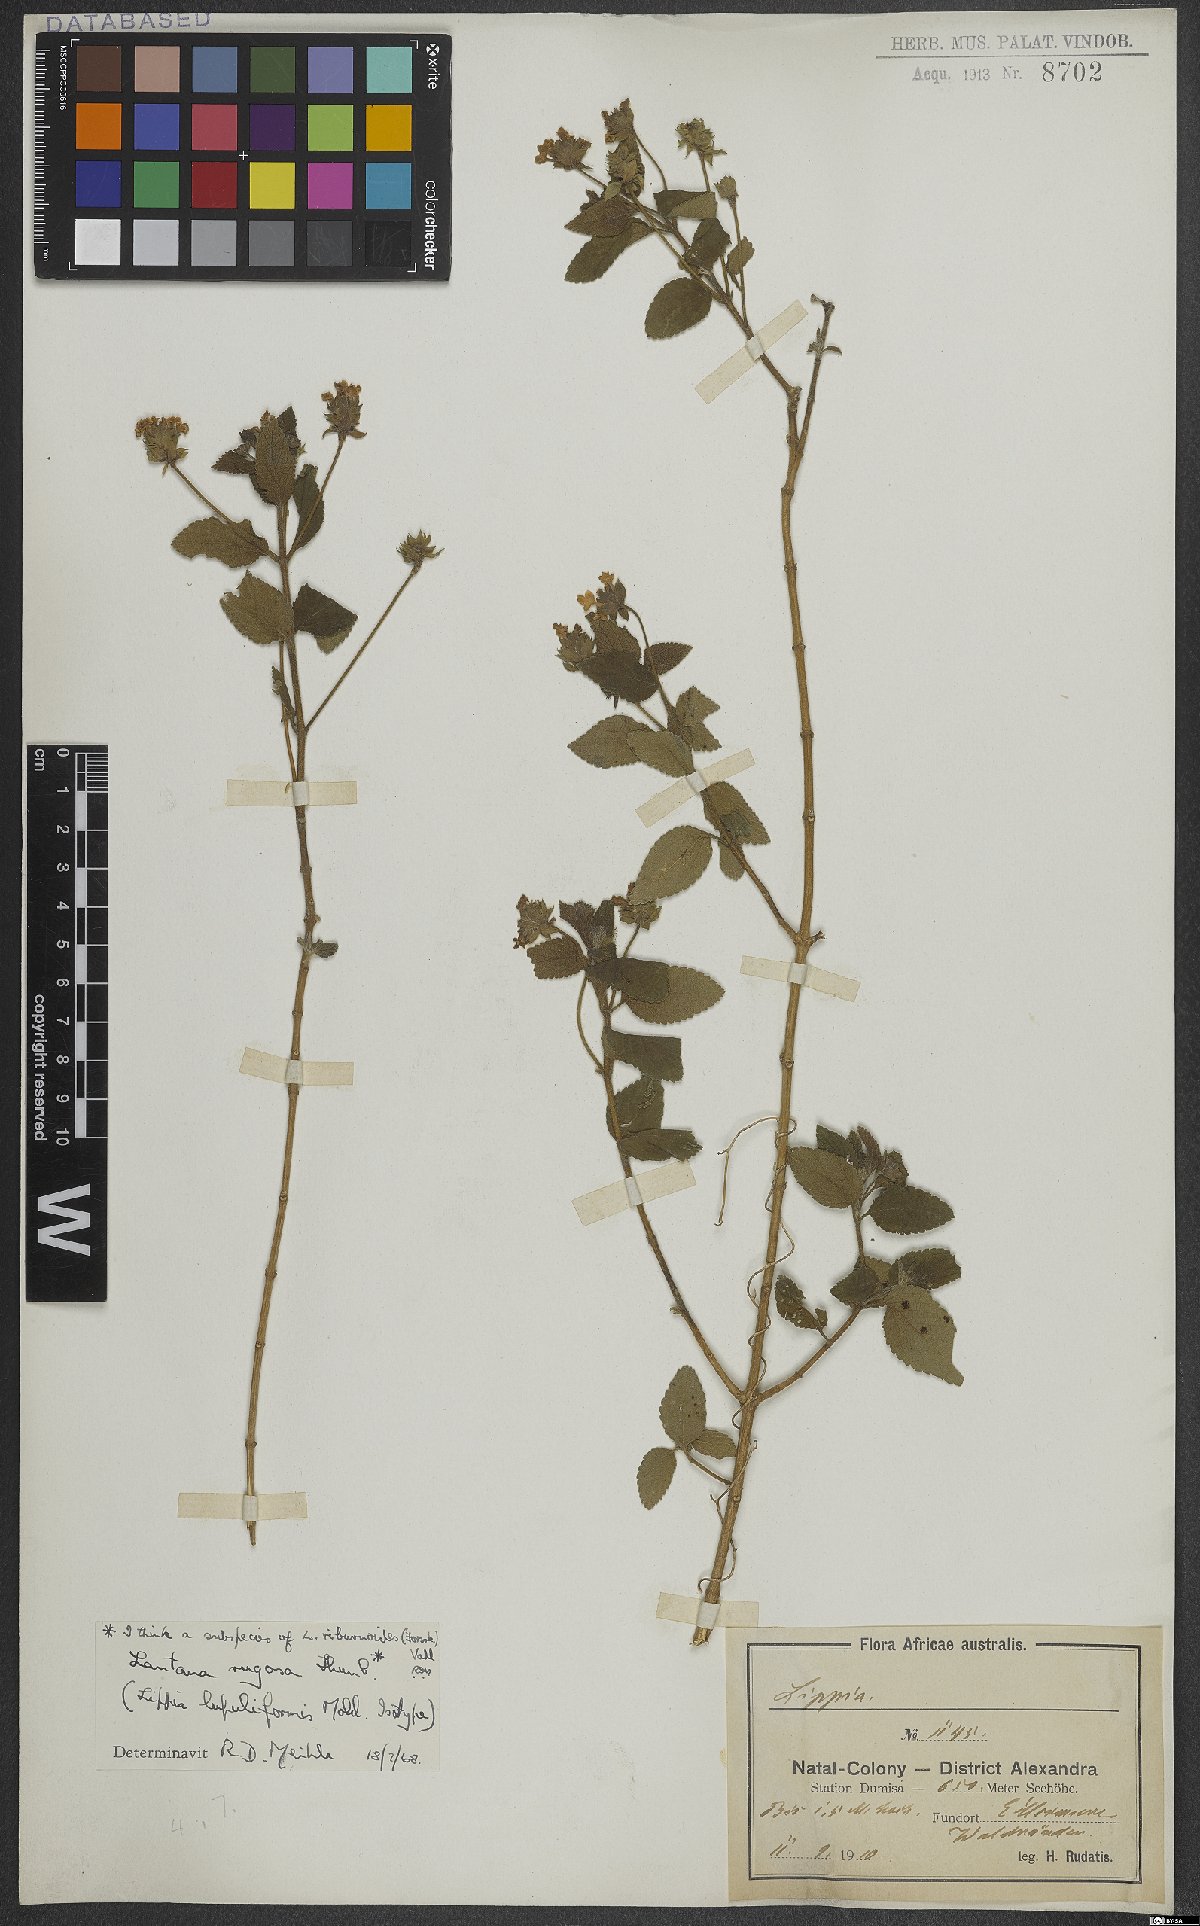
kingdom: Plantae
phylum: Tracheophyta
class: Magnoliopsida
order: Lamiales
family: Verbenaceae
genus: Lantana
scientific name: Lantana rugosa
